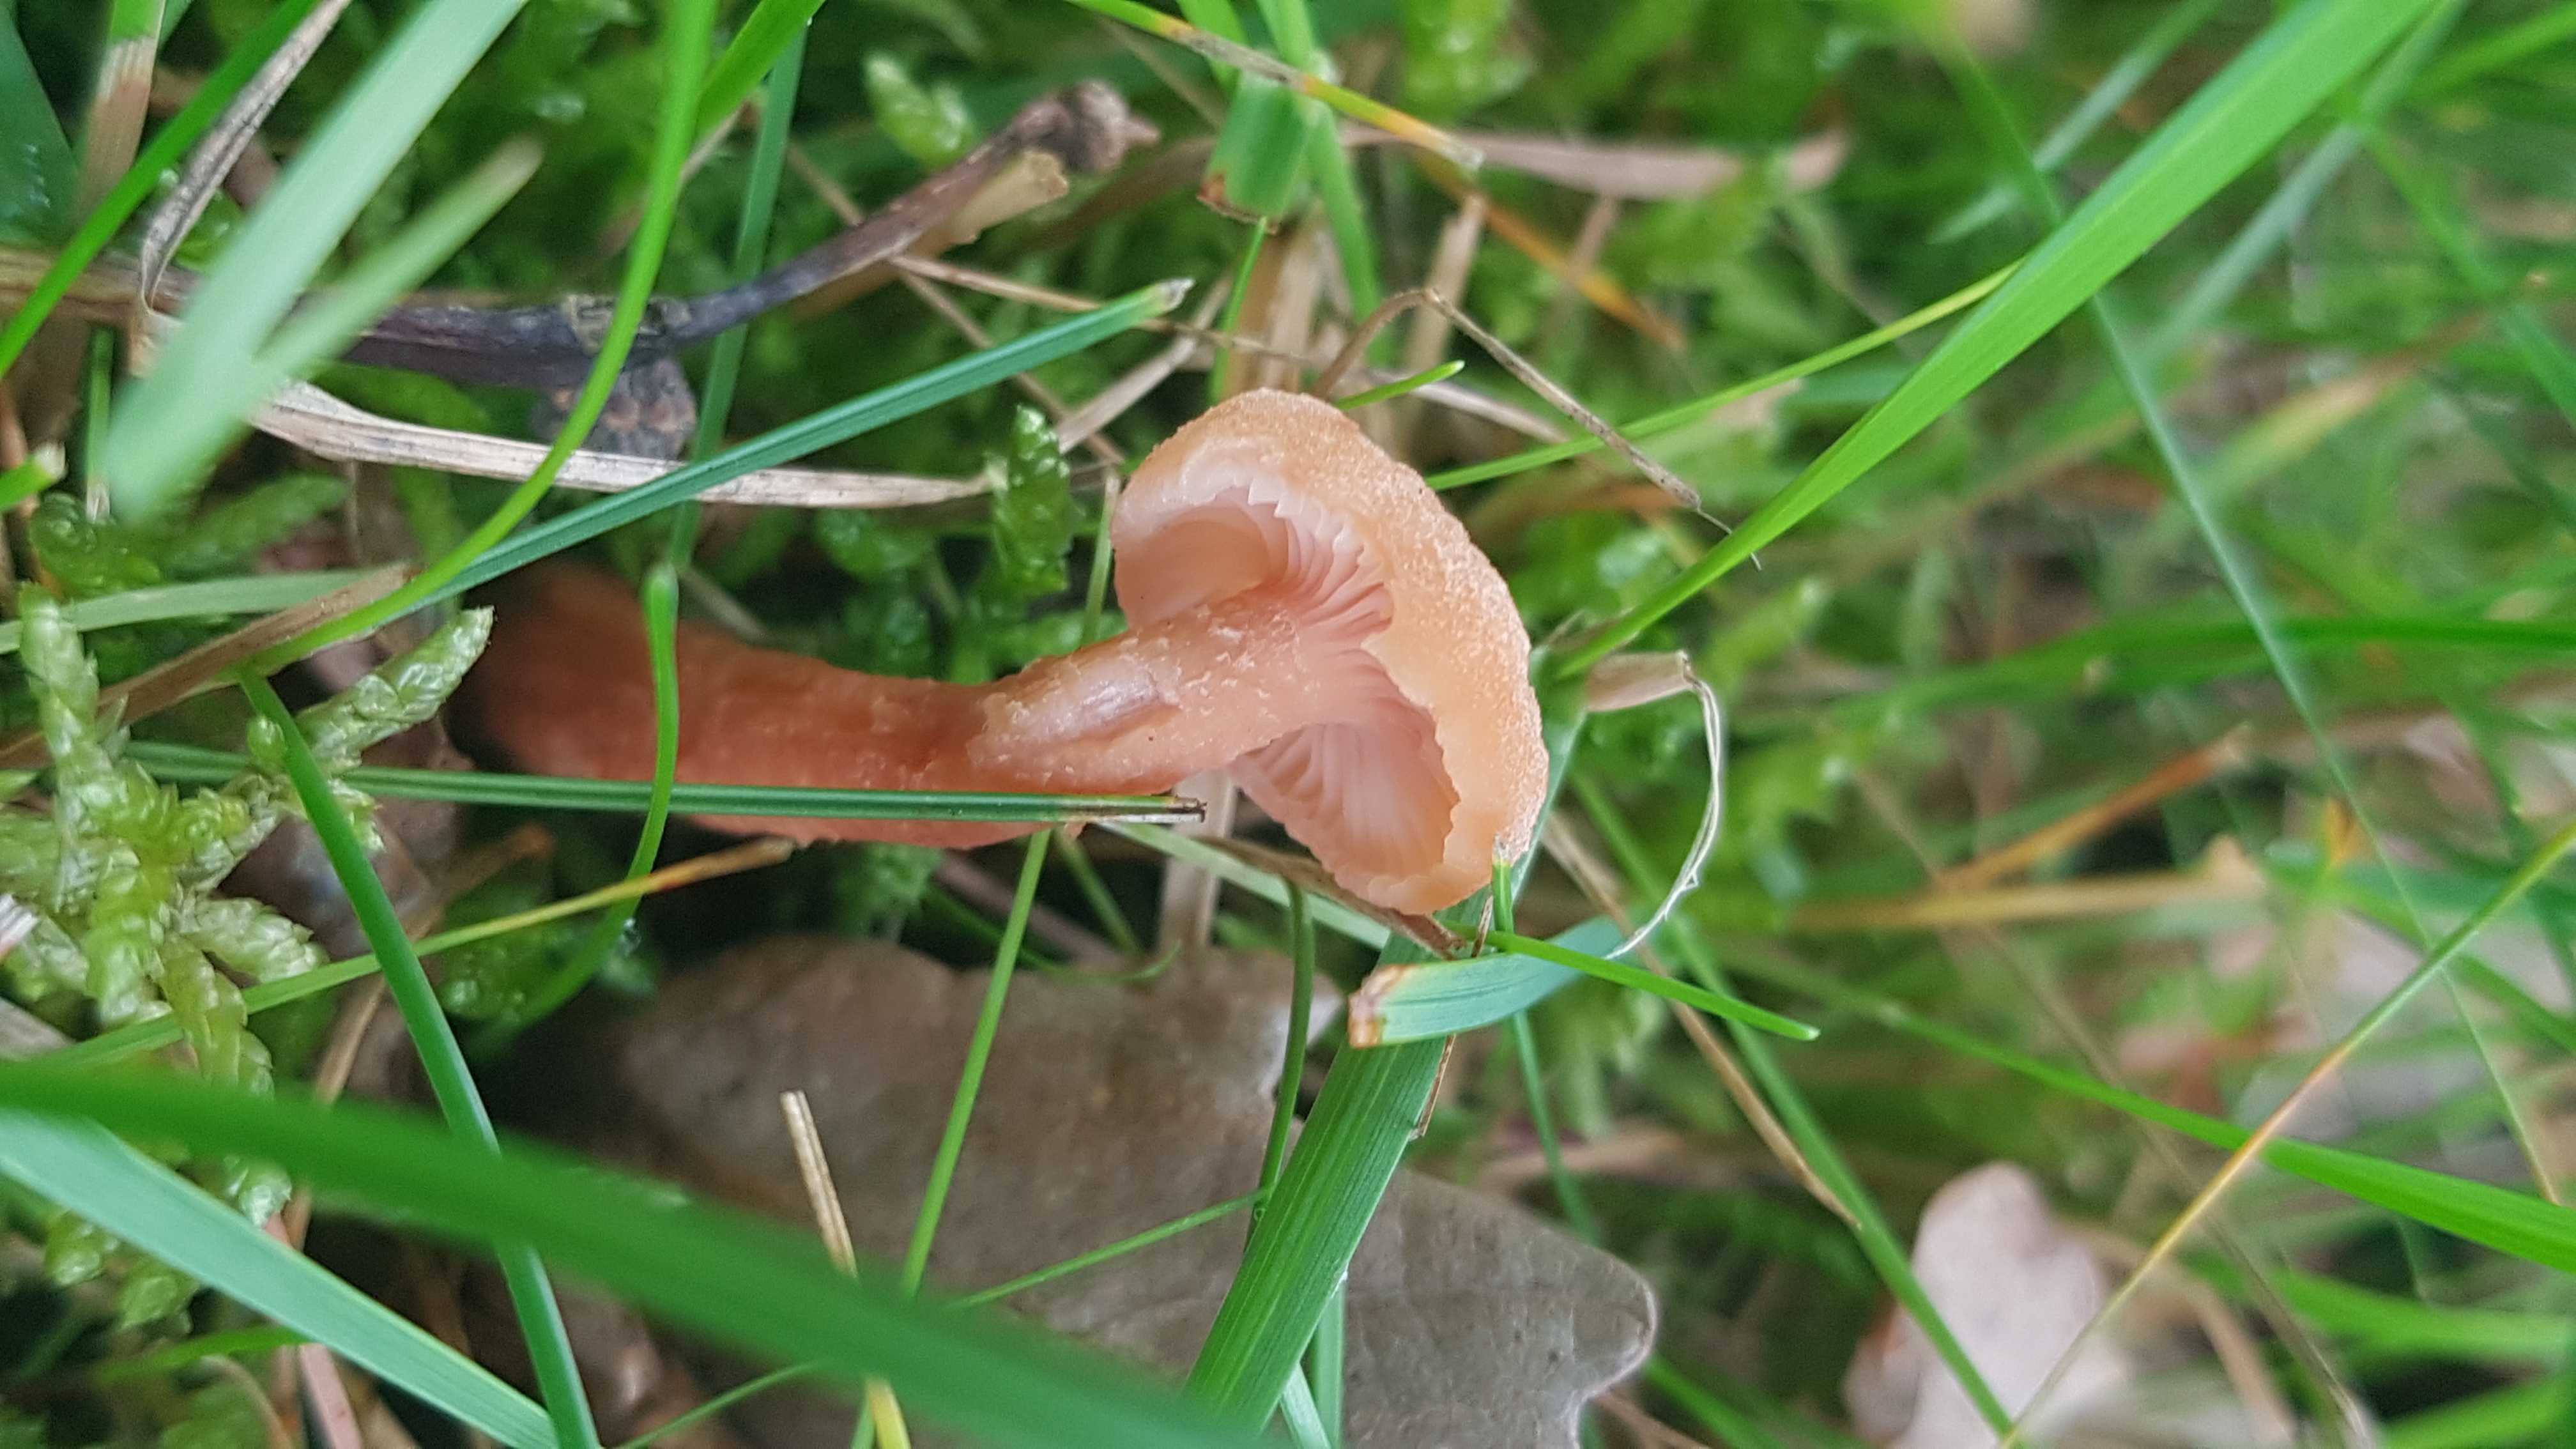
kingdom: Fungi
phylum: Basidiomycota
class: Agaricomycetes
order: Agaricales
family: Hydnangiaceae
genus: Laccaria
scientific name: Laccaria laccata
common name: rød ametysthat
